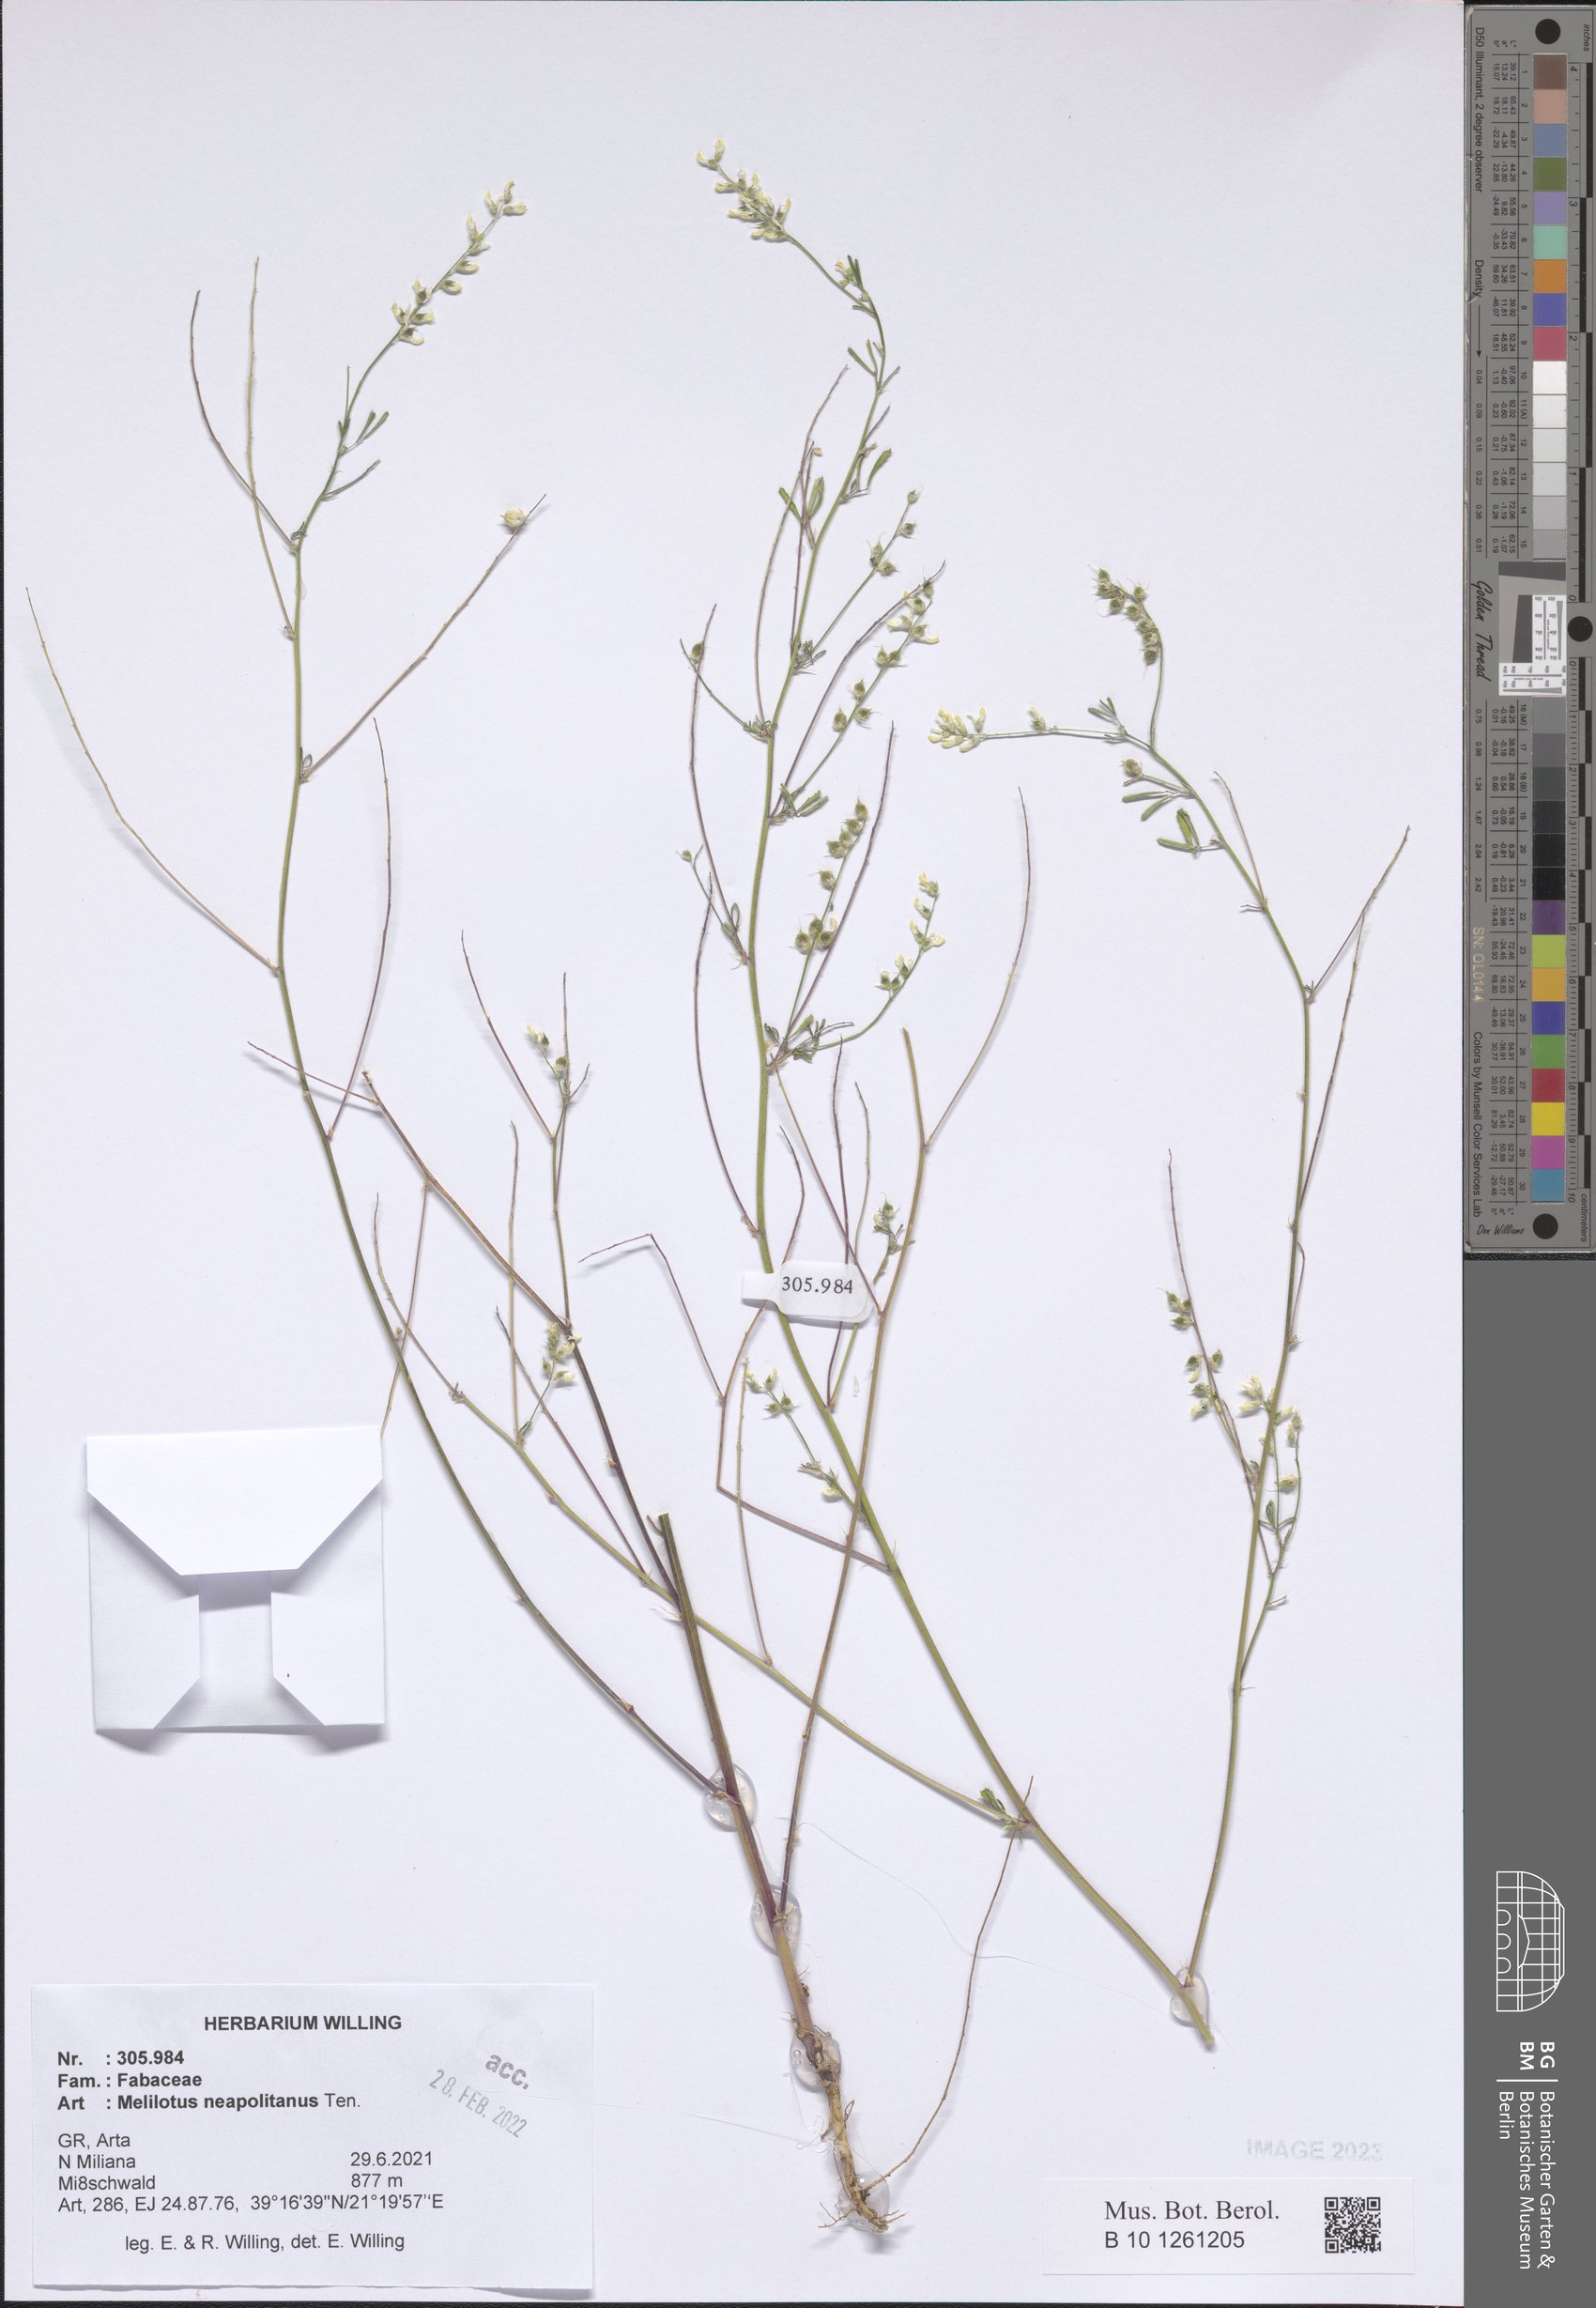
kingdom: Plantae
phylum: Tracheophyta
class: Magnoliopsida
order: Fabales
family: Fabaceae
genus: Melilotus
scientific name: Melilotus neapolitanus
